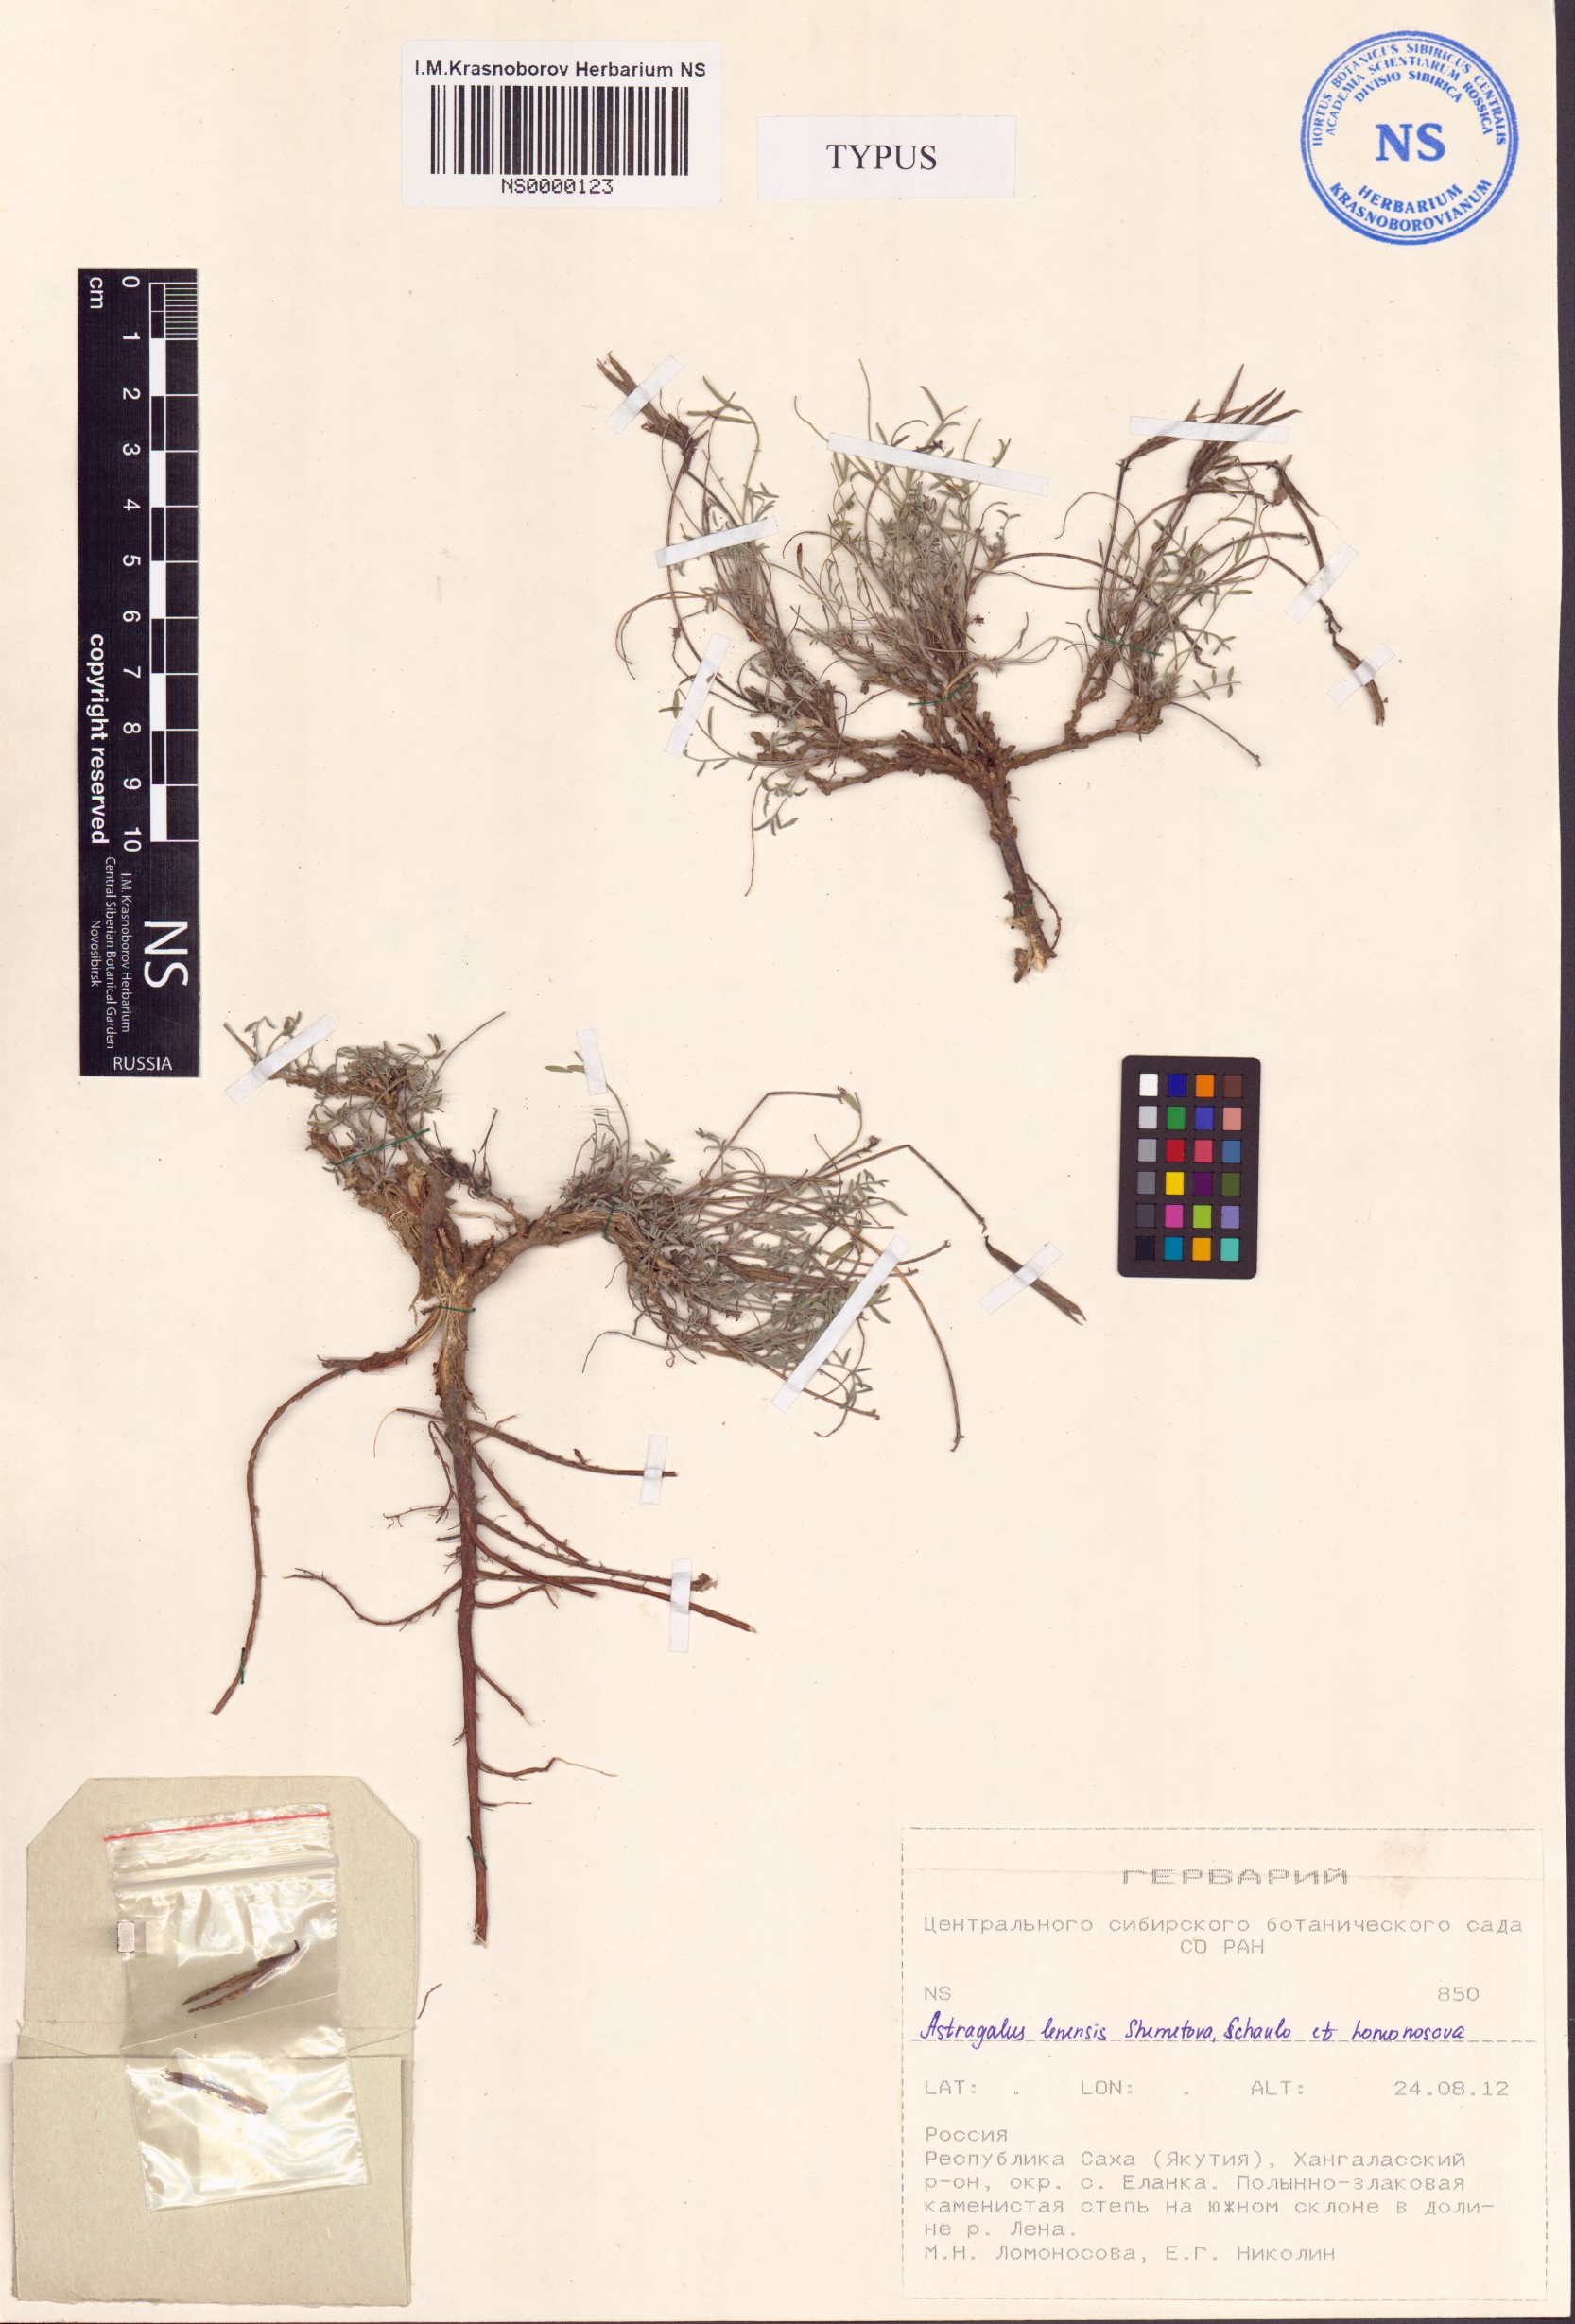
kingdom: Plantae
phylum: Tracheophyta
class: Magnoliopsida
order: Fabales
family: Fabaceae
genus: Astragalus
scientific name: Astragalus lenensis
